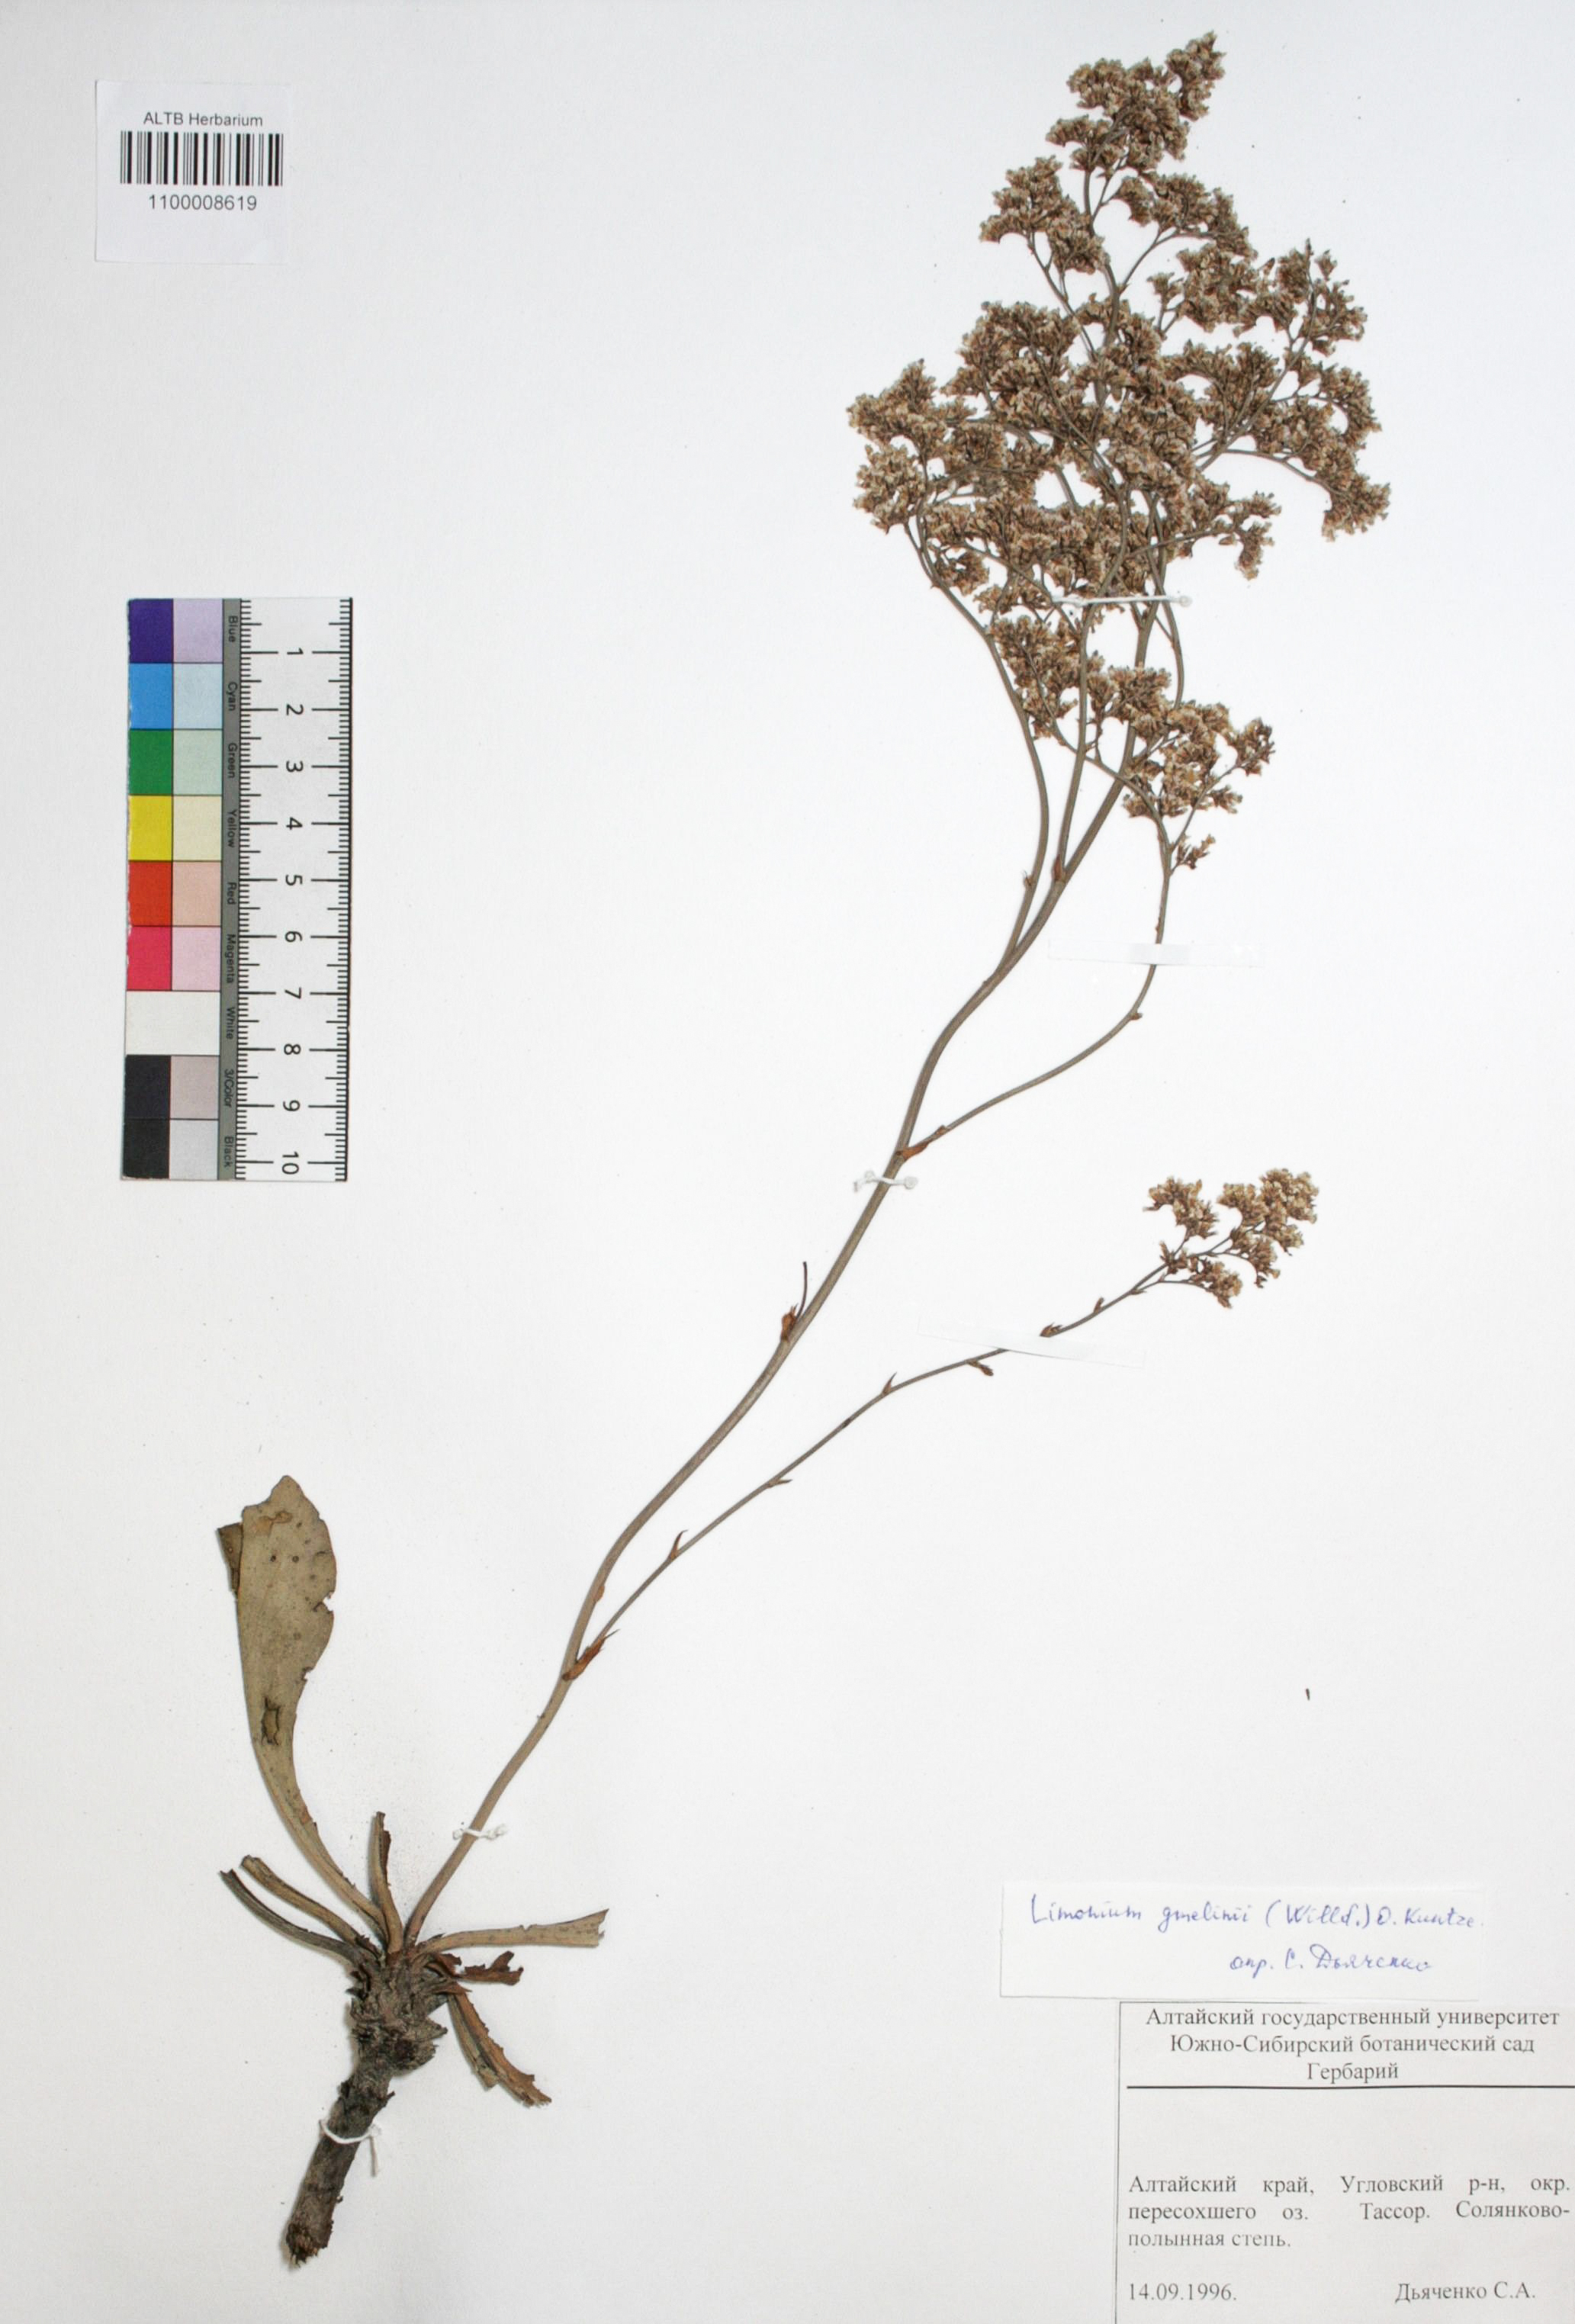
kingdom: Plantae
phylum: Tracheophyta
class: Magnoliopsida
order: Caryophyllales
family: Plumbaginaceae
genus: Limonium
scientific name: Limonium gmelini
